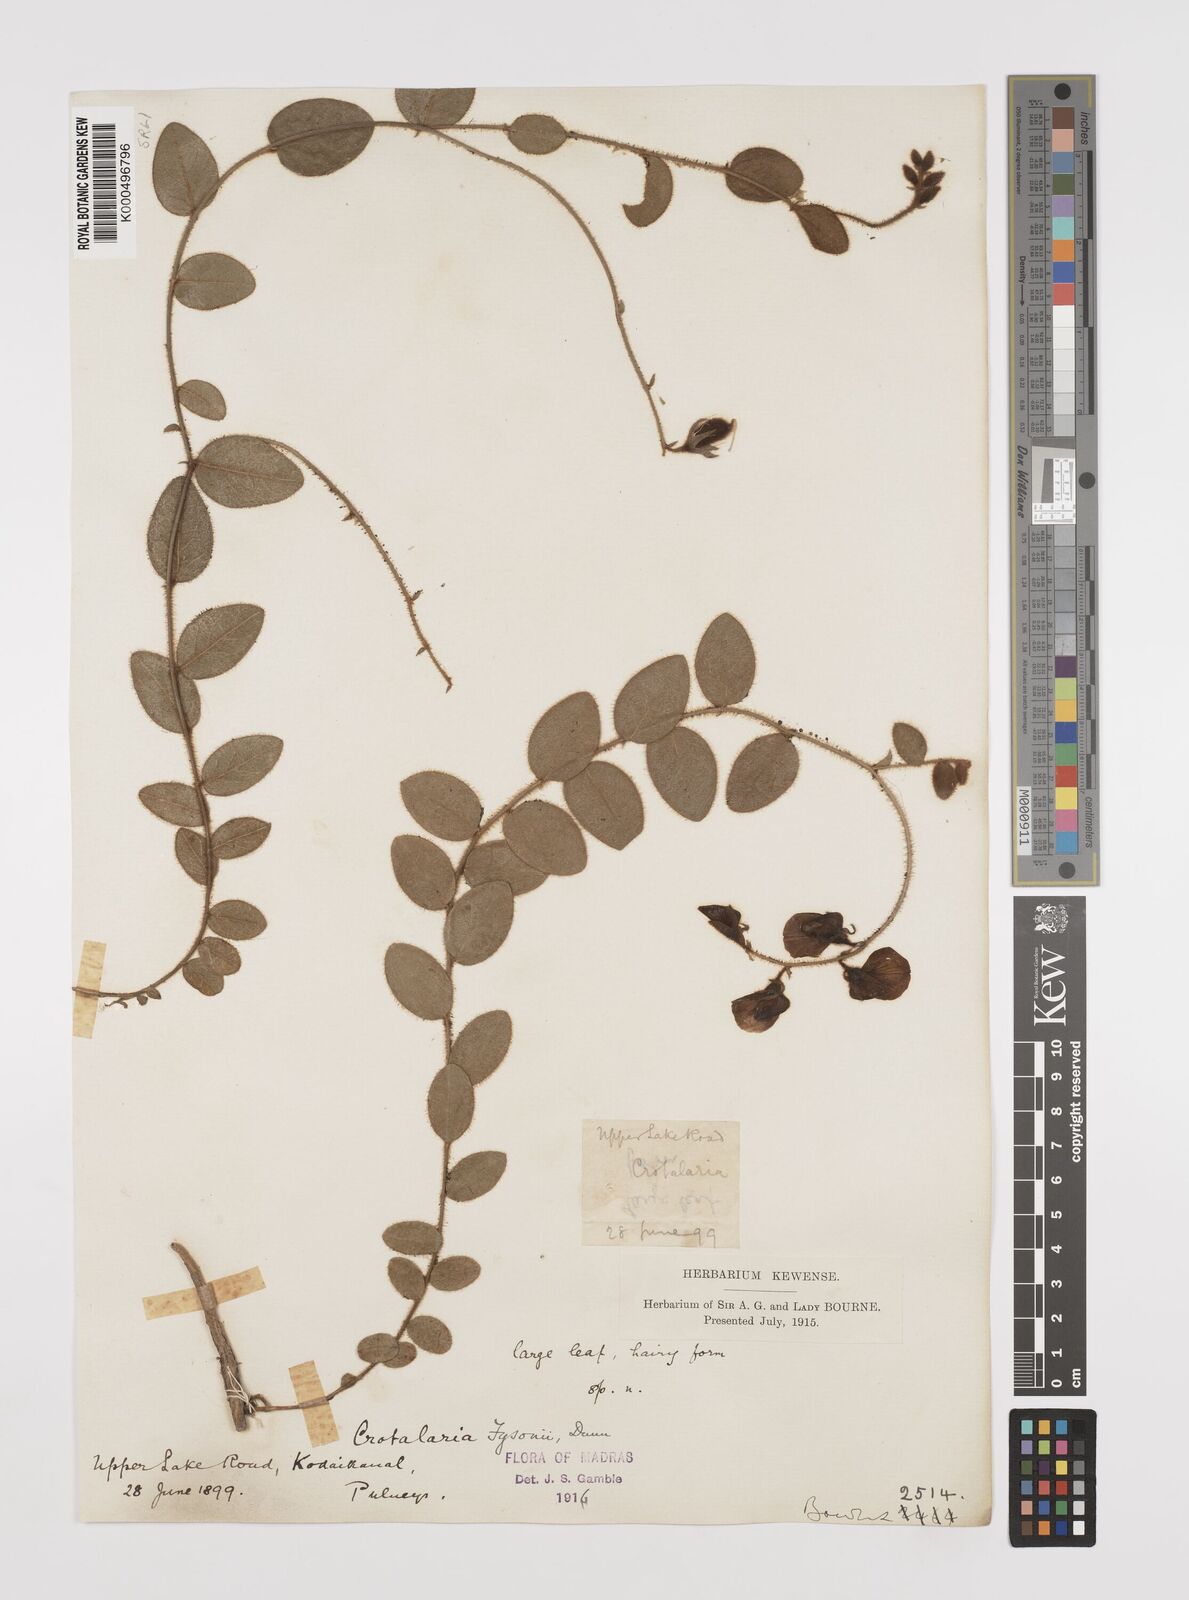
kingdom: Plantae
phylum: Tracheophyta
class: Magnoliopsida
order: Fabales
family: Fabaceae
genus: Crotalaria
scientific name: Crotalaria fysonii
